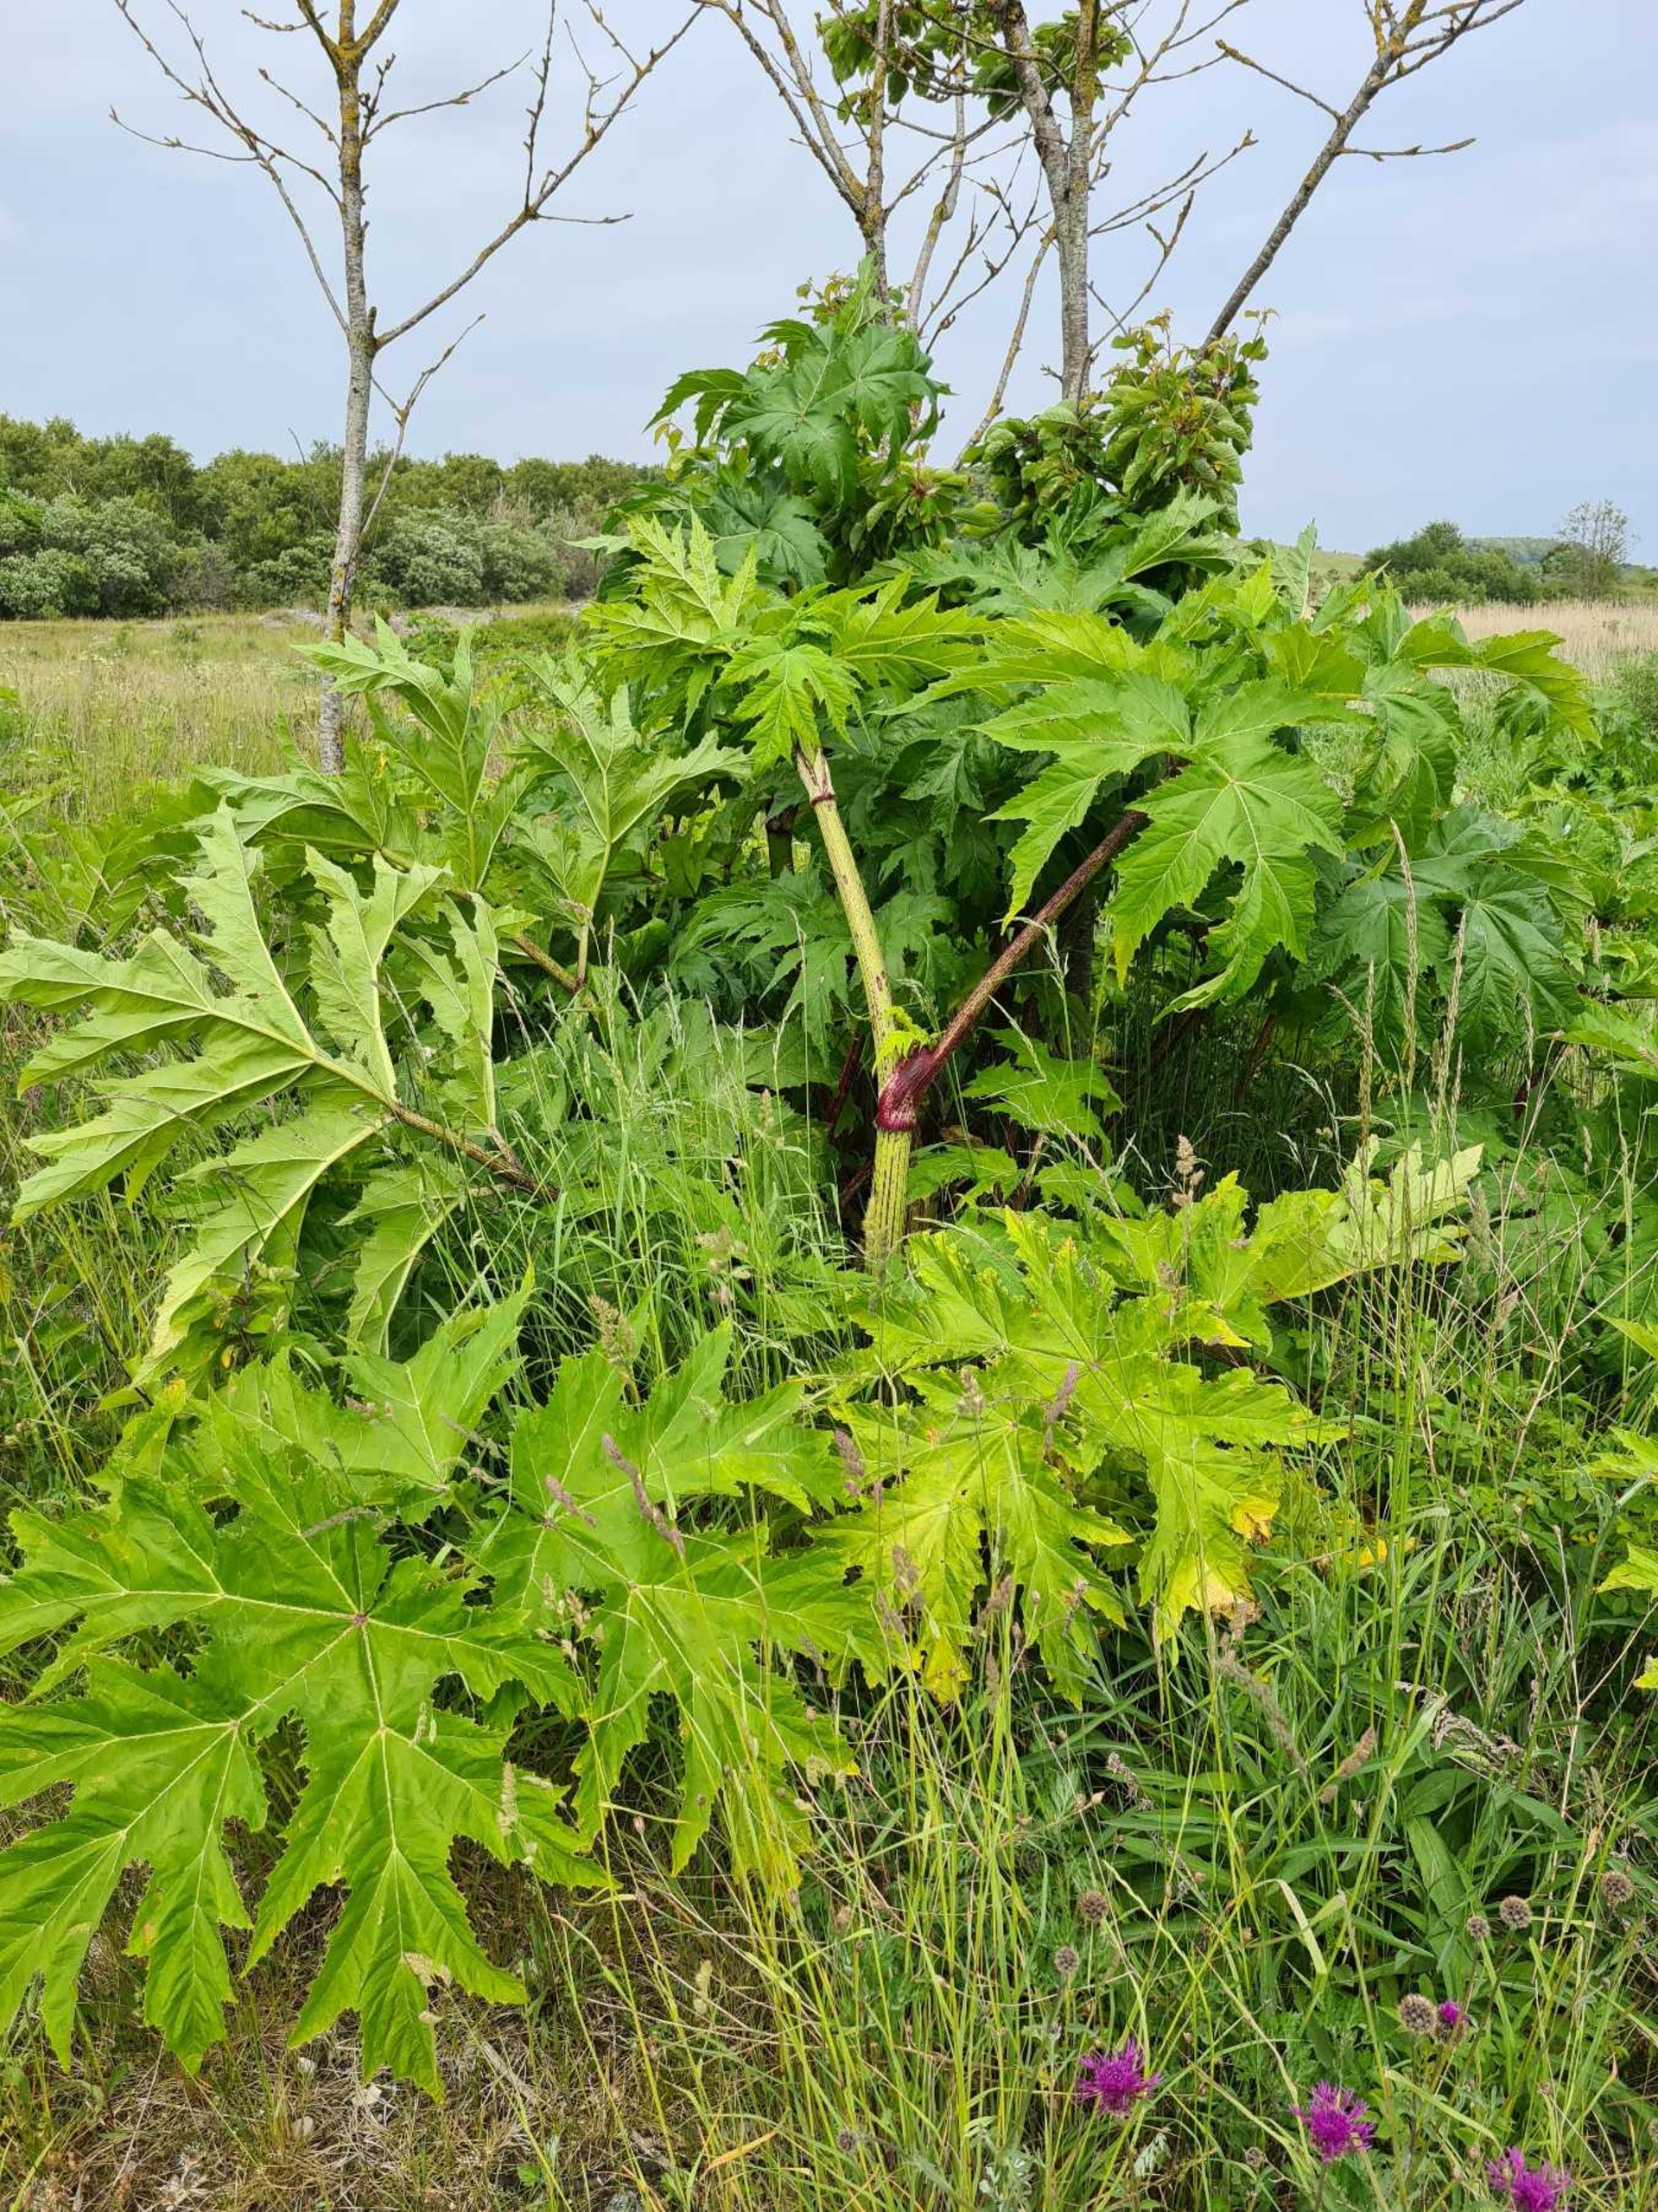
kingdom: Plantae
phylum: Tracheophyta
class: Magnoliopsida
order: Apiales
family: Apiaceae
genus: Heracleum
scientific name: Heracleum mantegazzianum
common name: Kæmpe-bjørneklo
